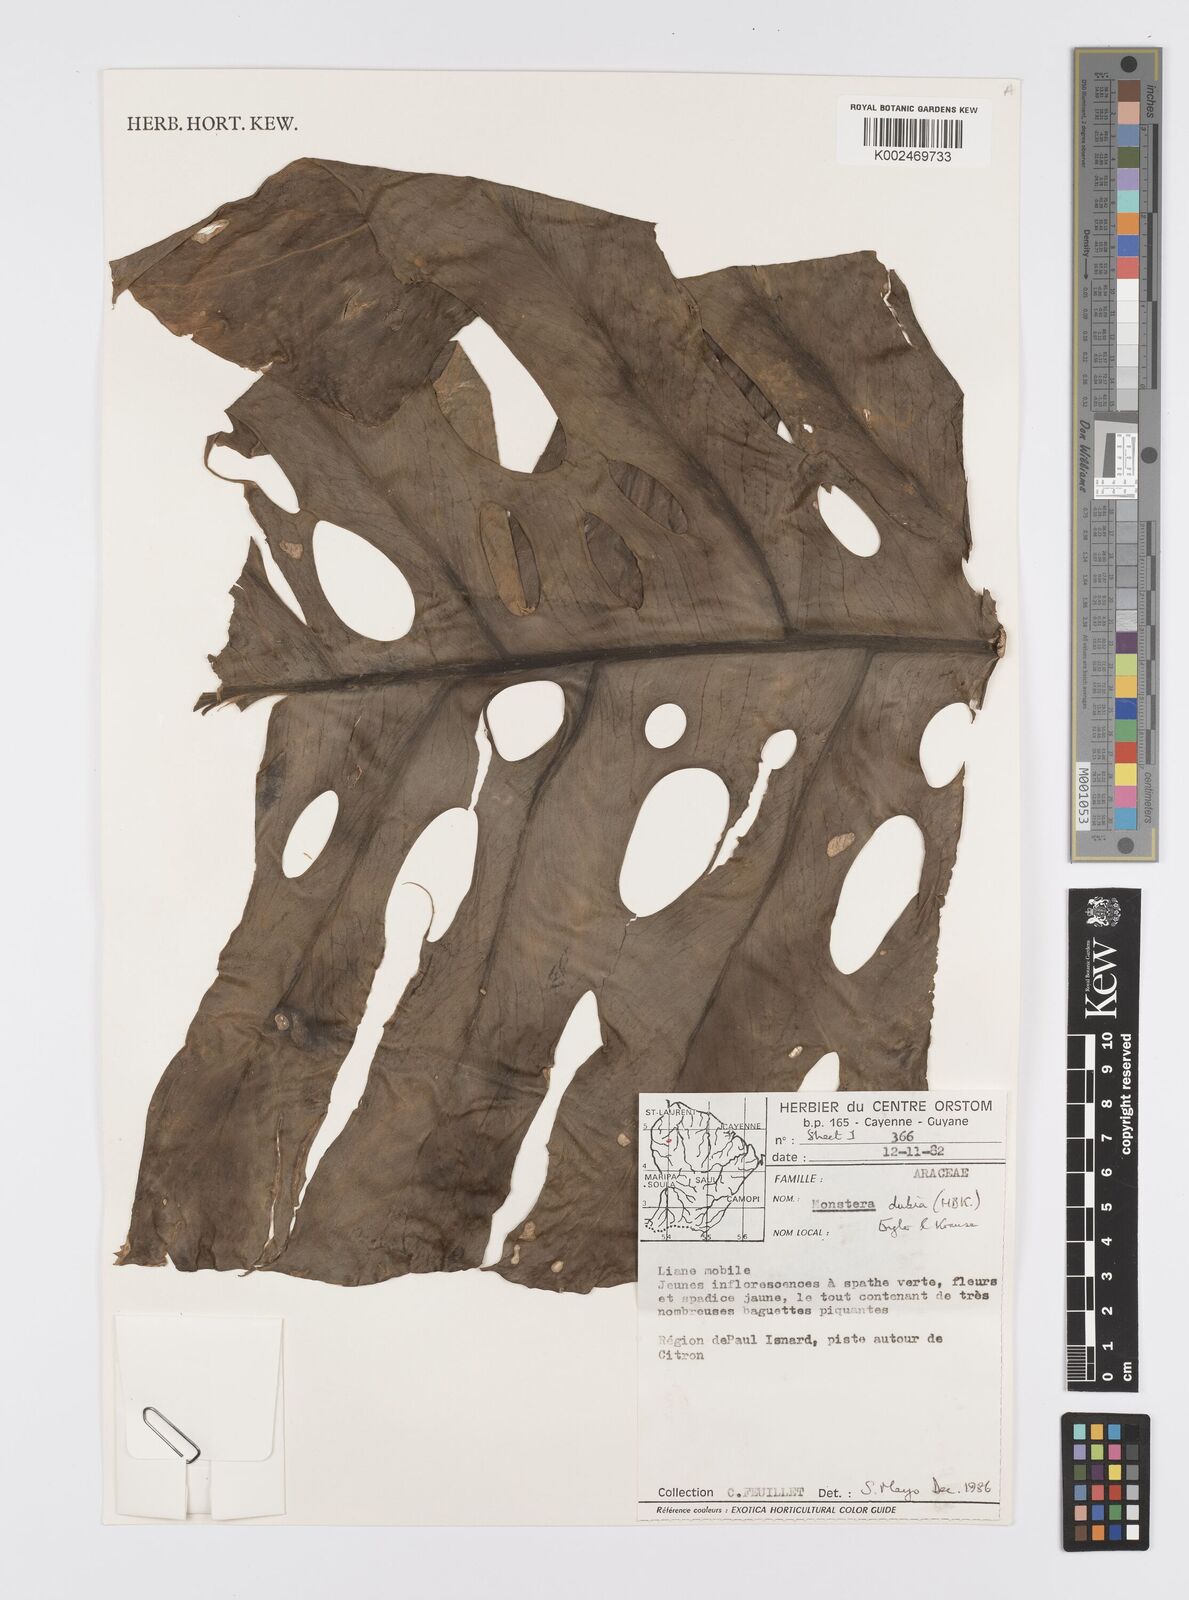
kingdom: Plantae
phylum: Tracheophyta
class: Liliopsida
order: Alismatales
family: Araceae
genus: Monstera
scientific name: Monstera dubia
